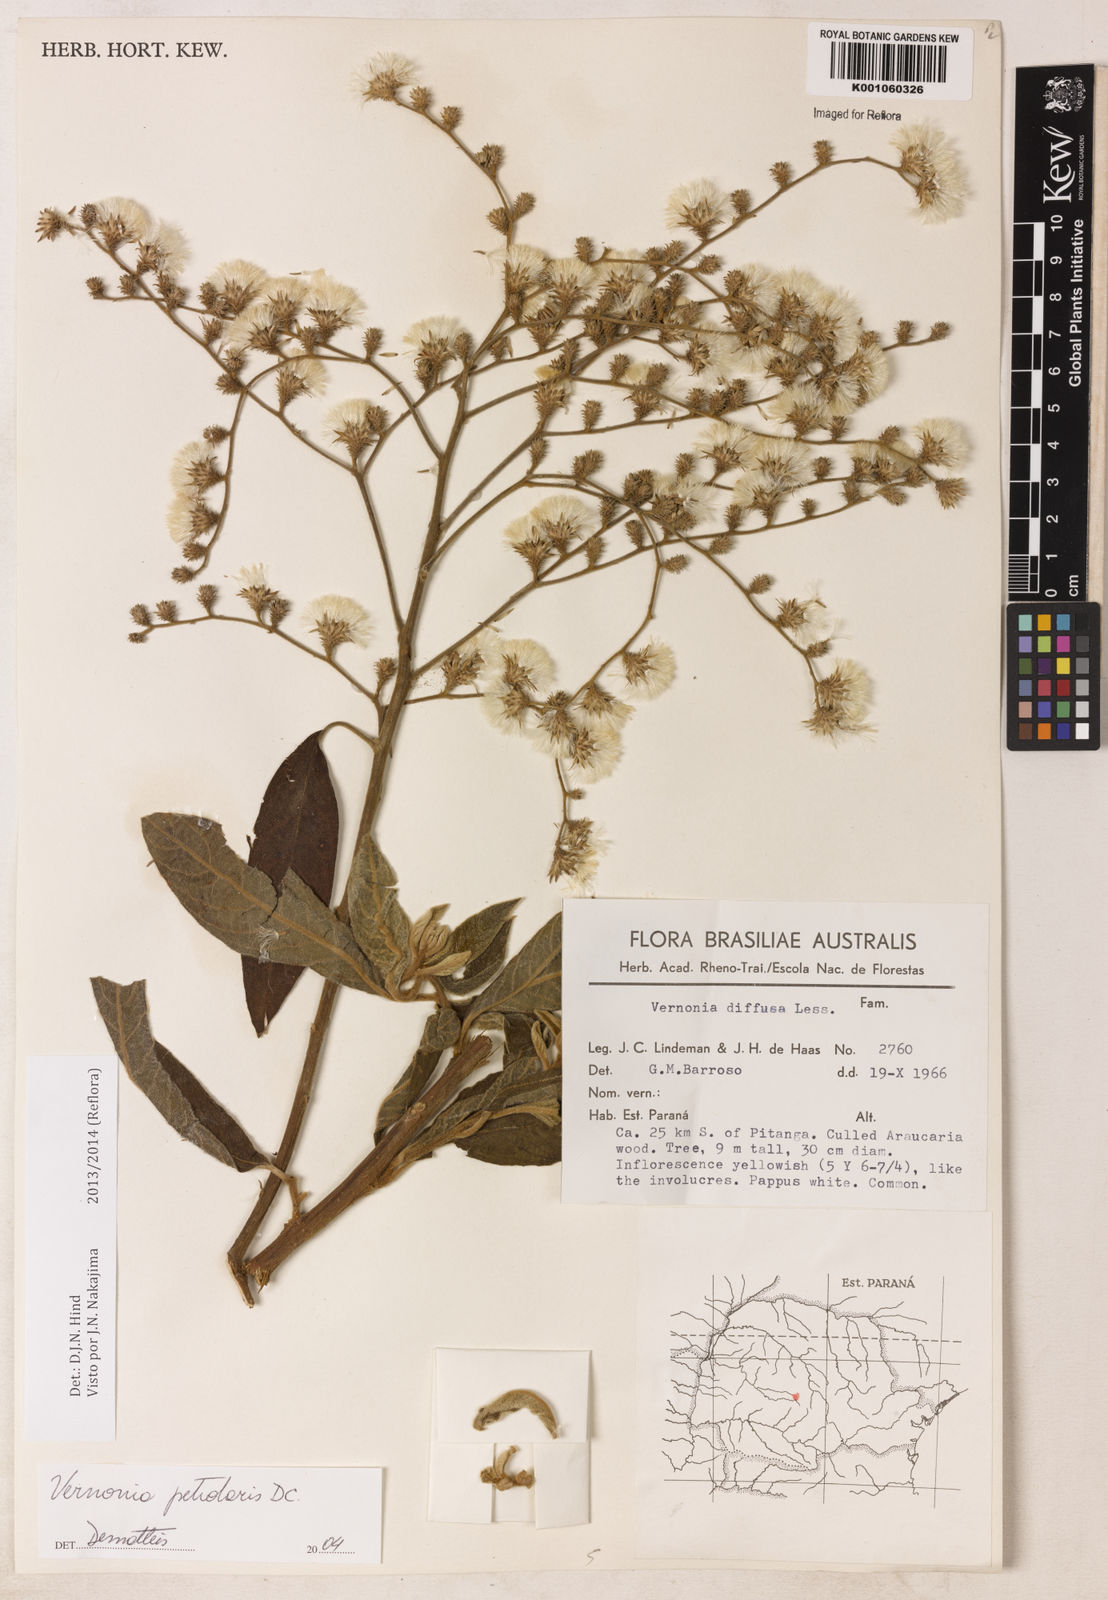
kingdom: Plantae
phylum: Tracheophyta
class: Magnoliopsida
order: Asterales
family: Asteraceae
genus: Vernonanthura
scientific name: Vernonanthura petiolaris
